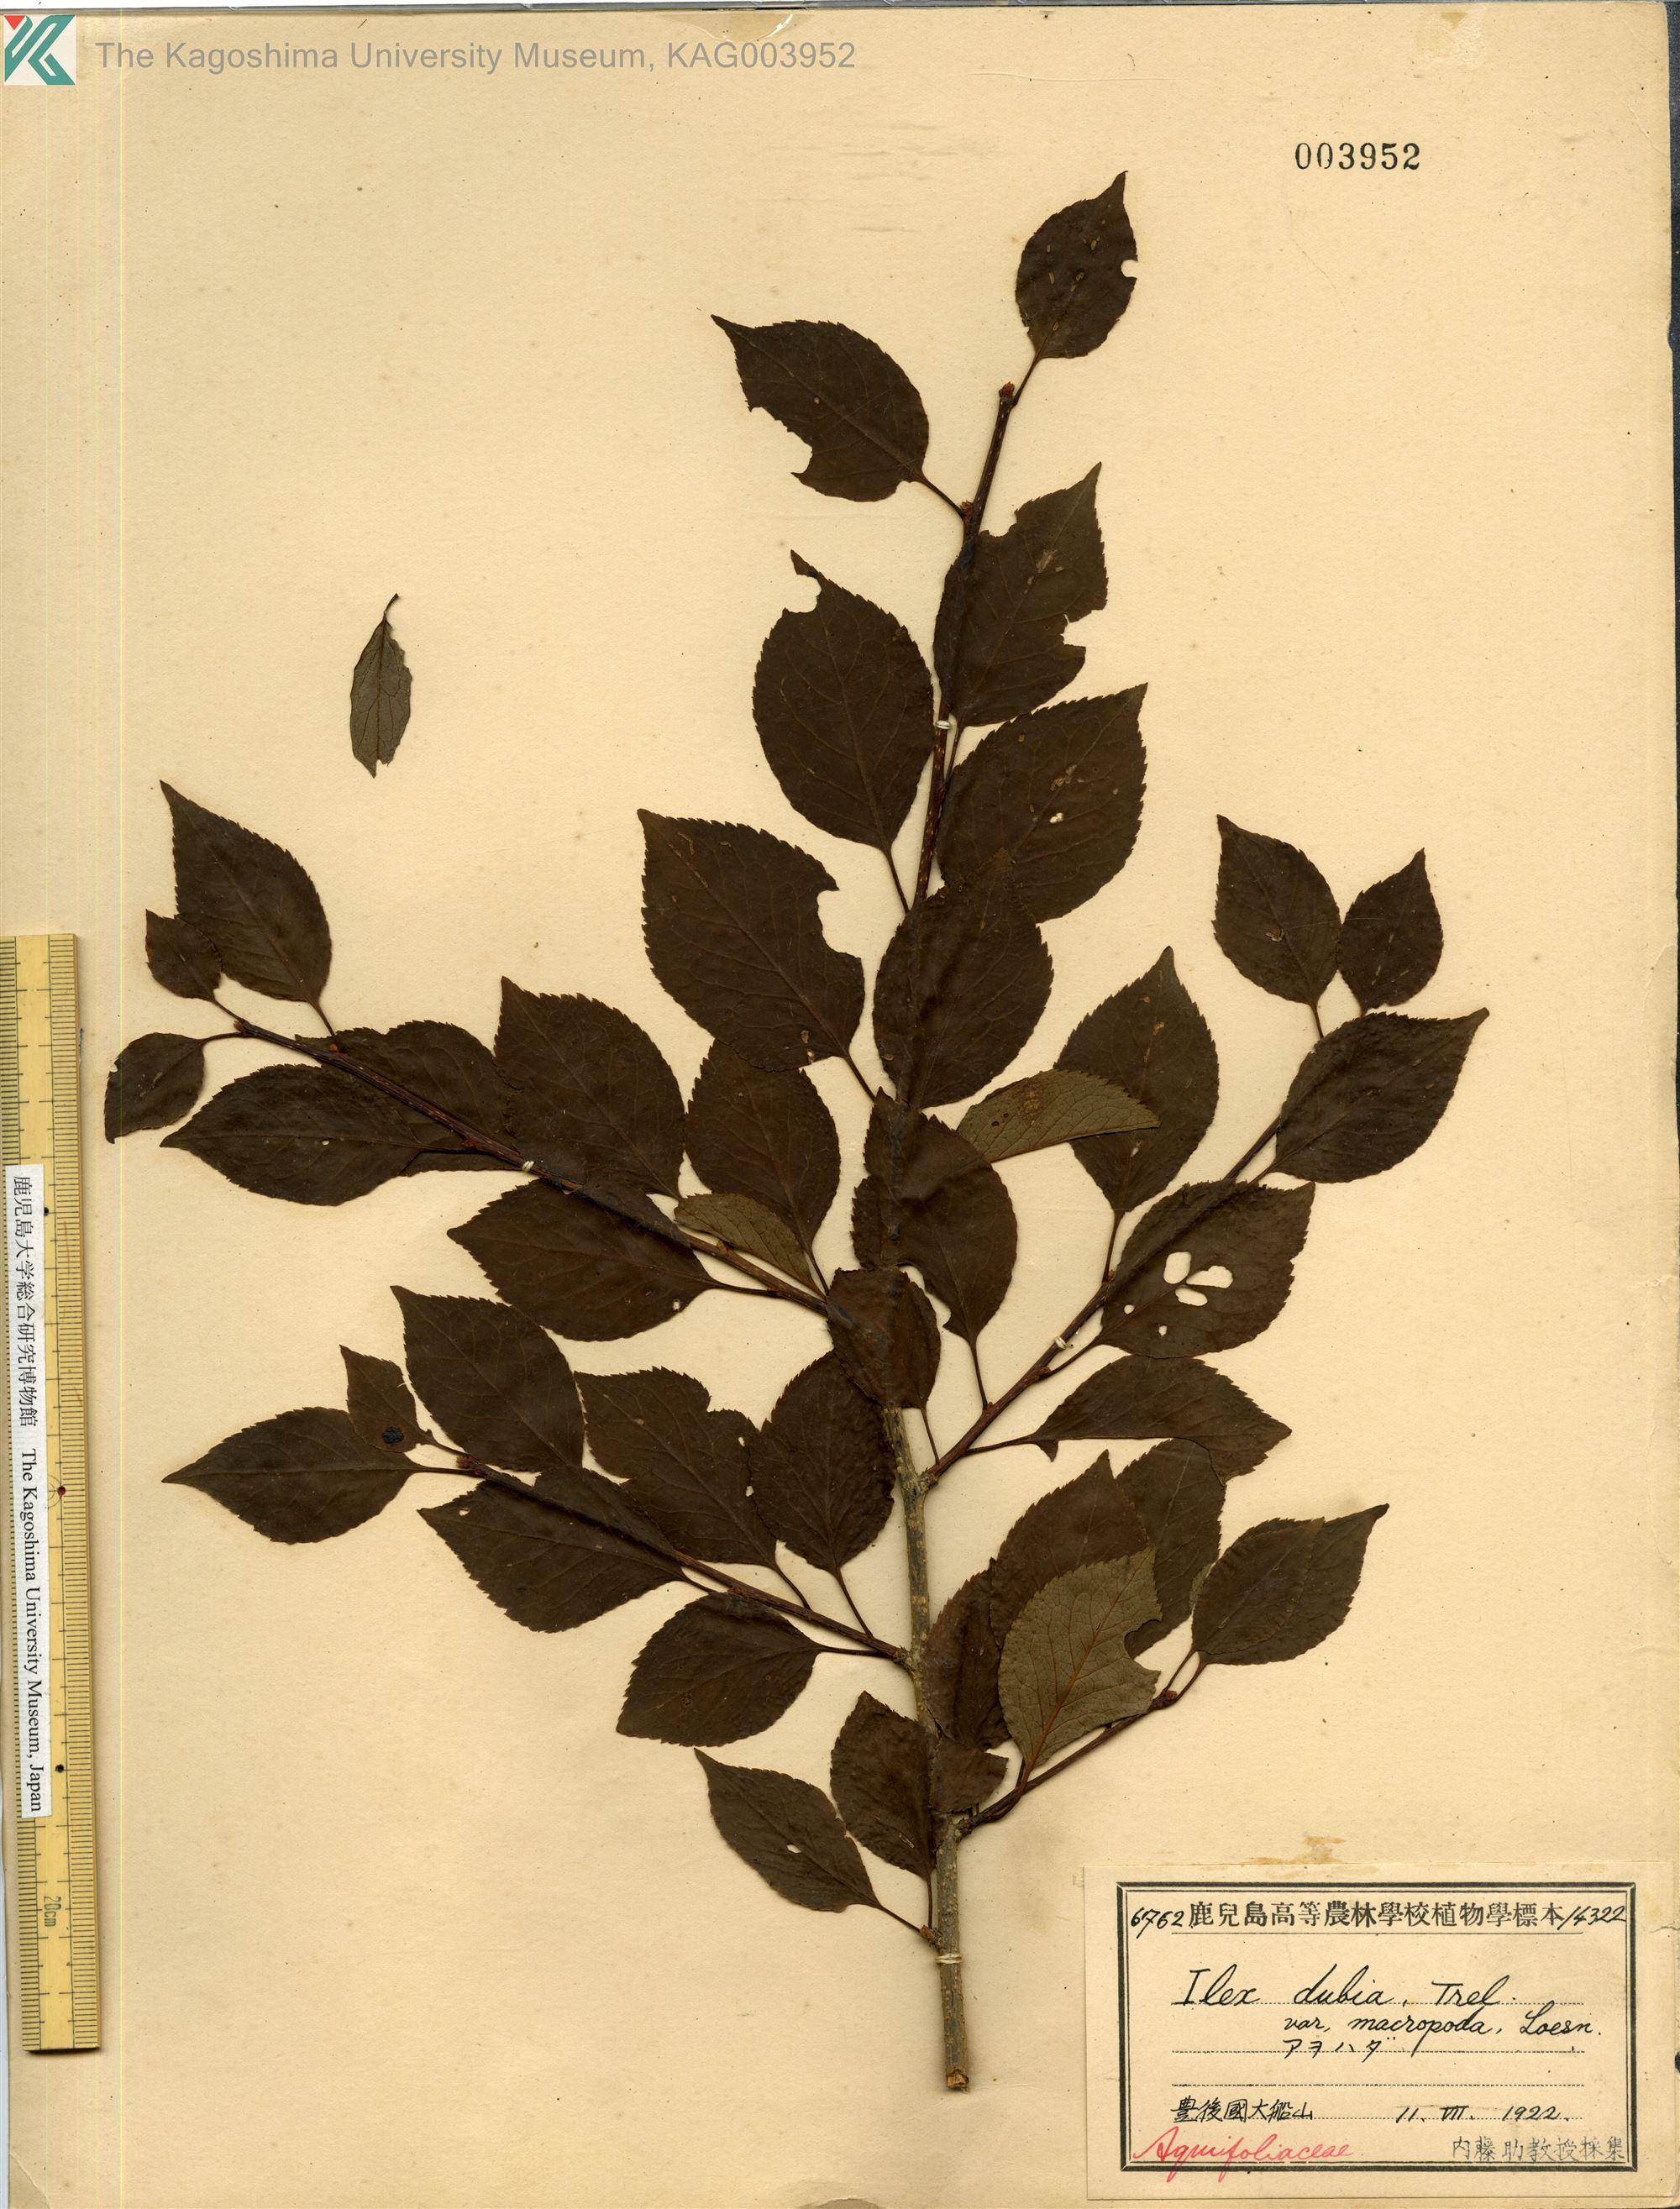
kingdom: Plantae
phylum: Tracheophyta
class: Magnoliopsida
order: Aquifoliales
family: Aquifoliaceae
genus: Ilex
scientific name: Ilex macropoda
